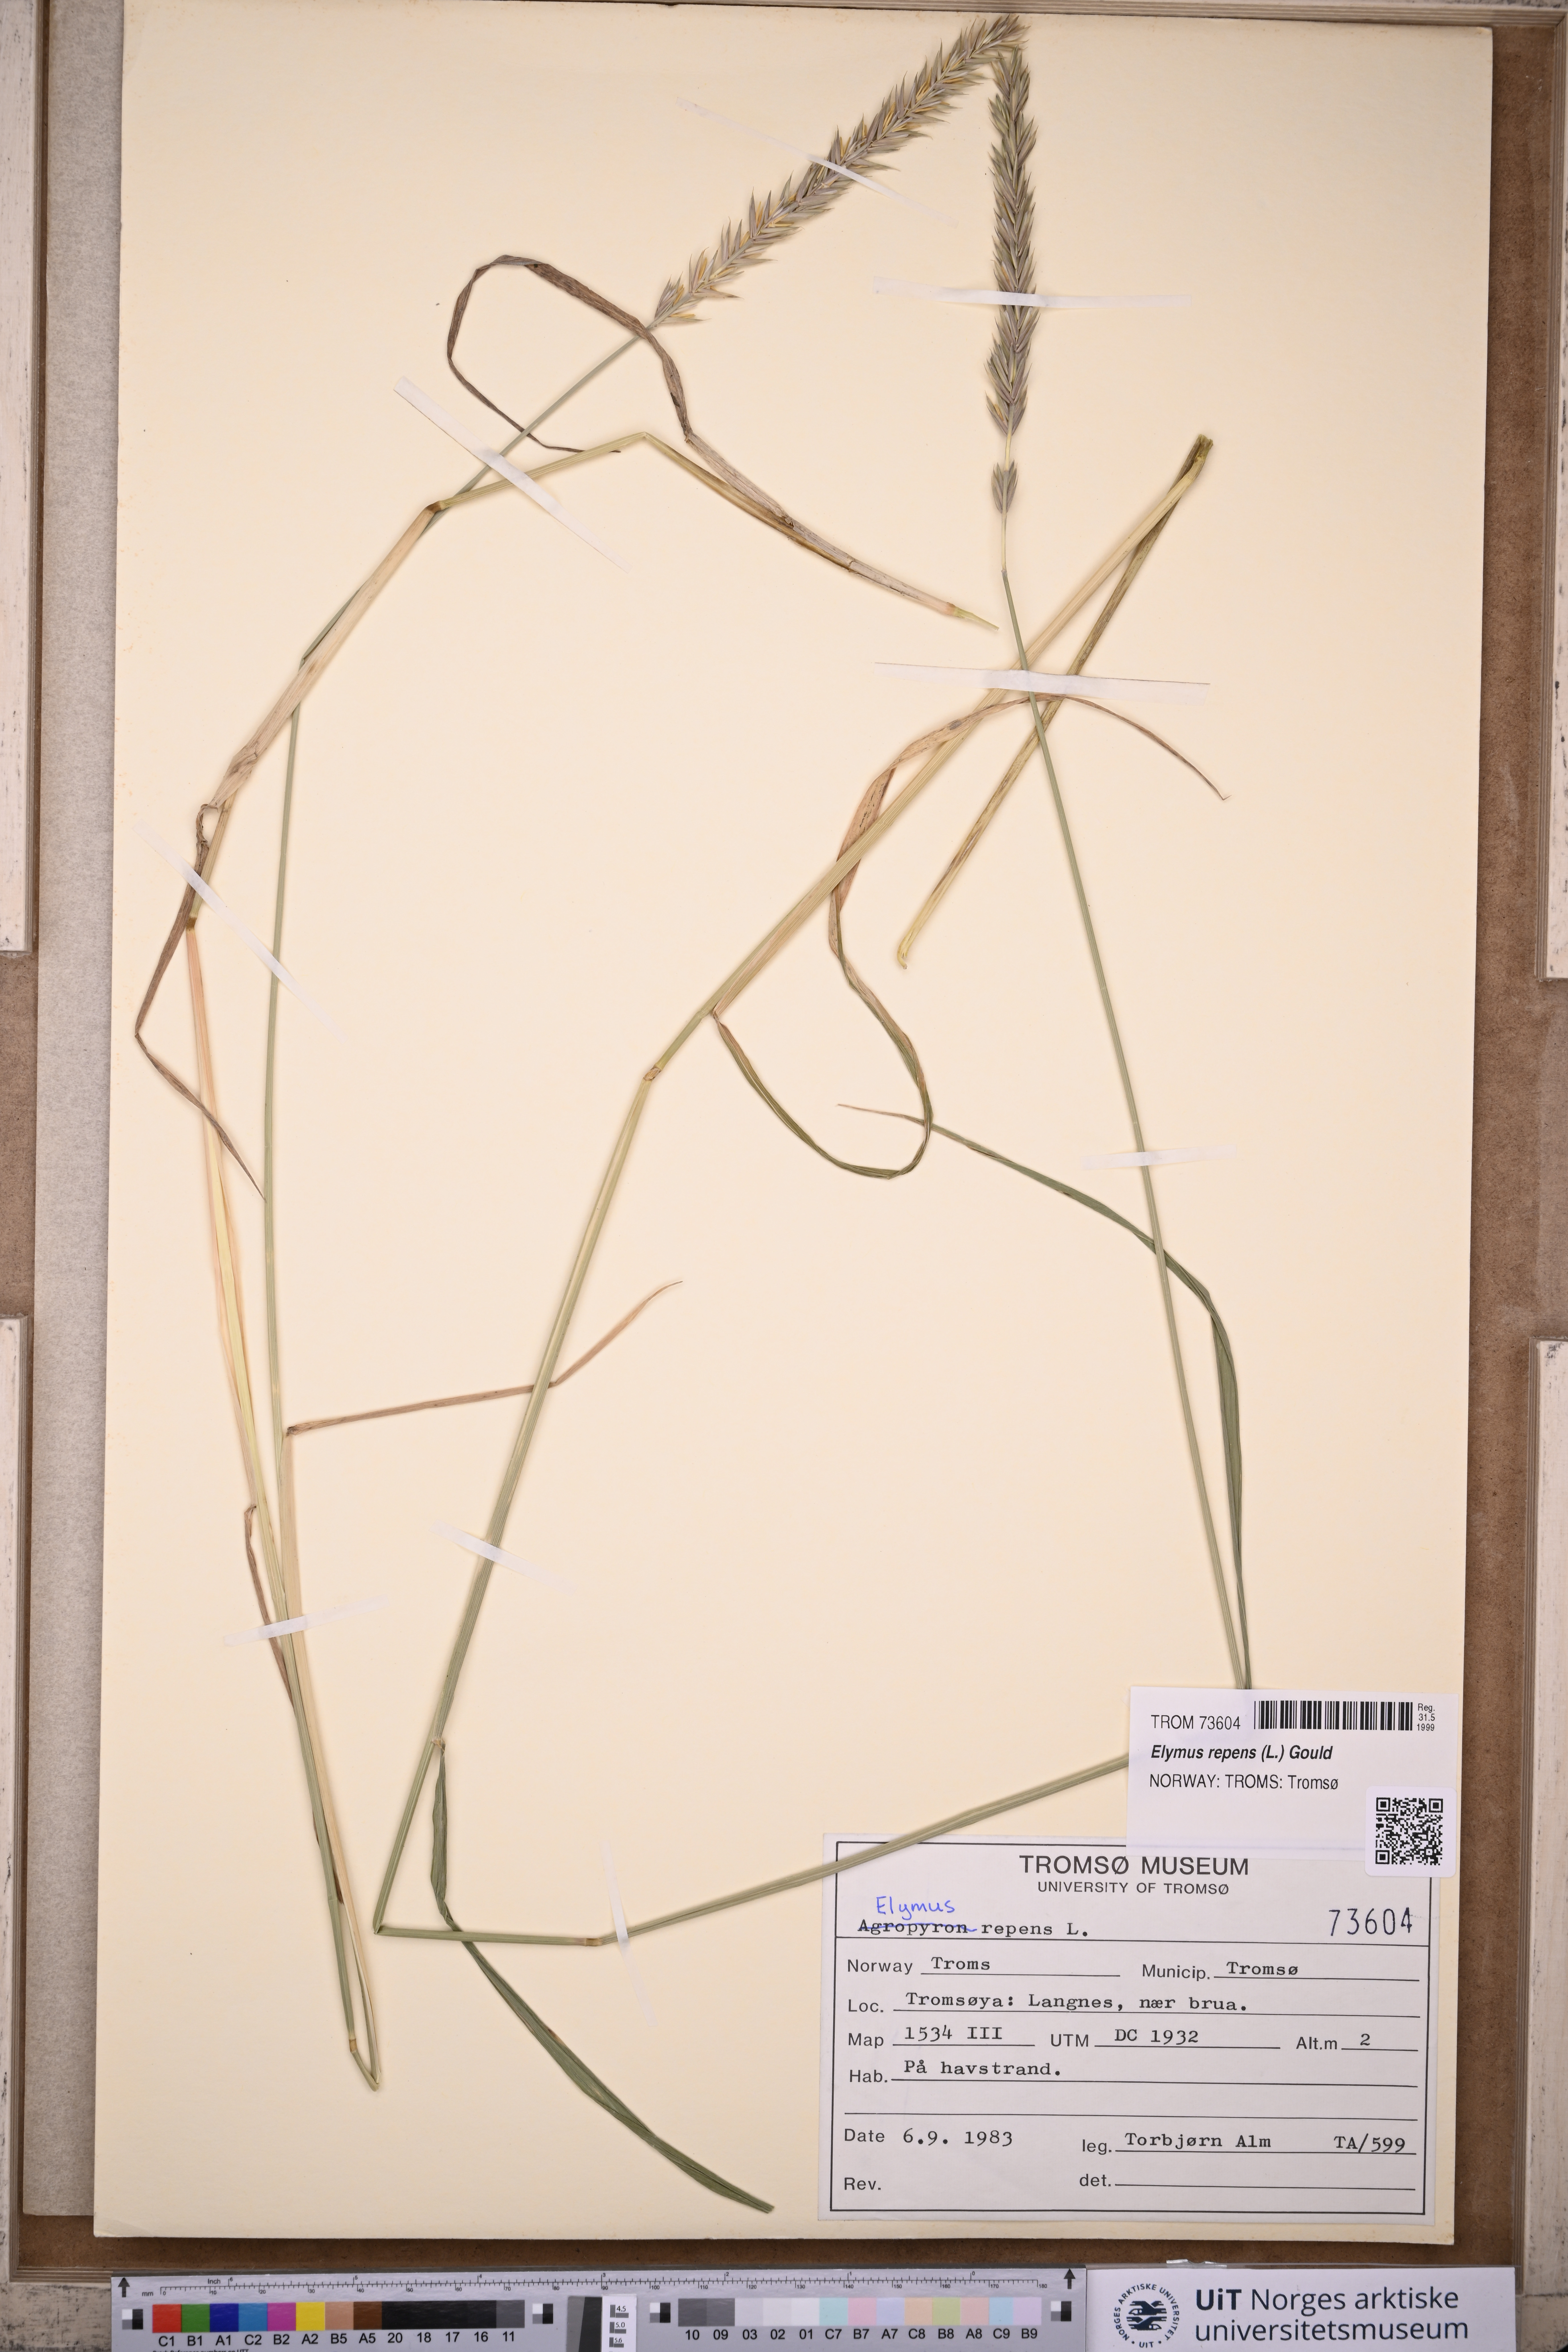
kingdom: Plantae
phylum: Tracheophyta
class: Liliopsida
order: Poales
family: Poaceae
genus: Elymus
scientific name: Elymus repens
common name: Quackgrass
